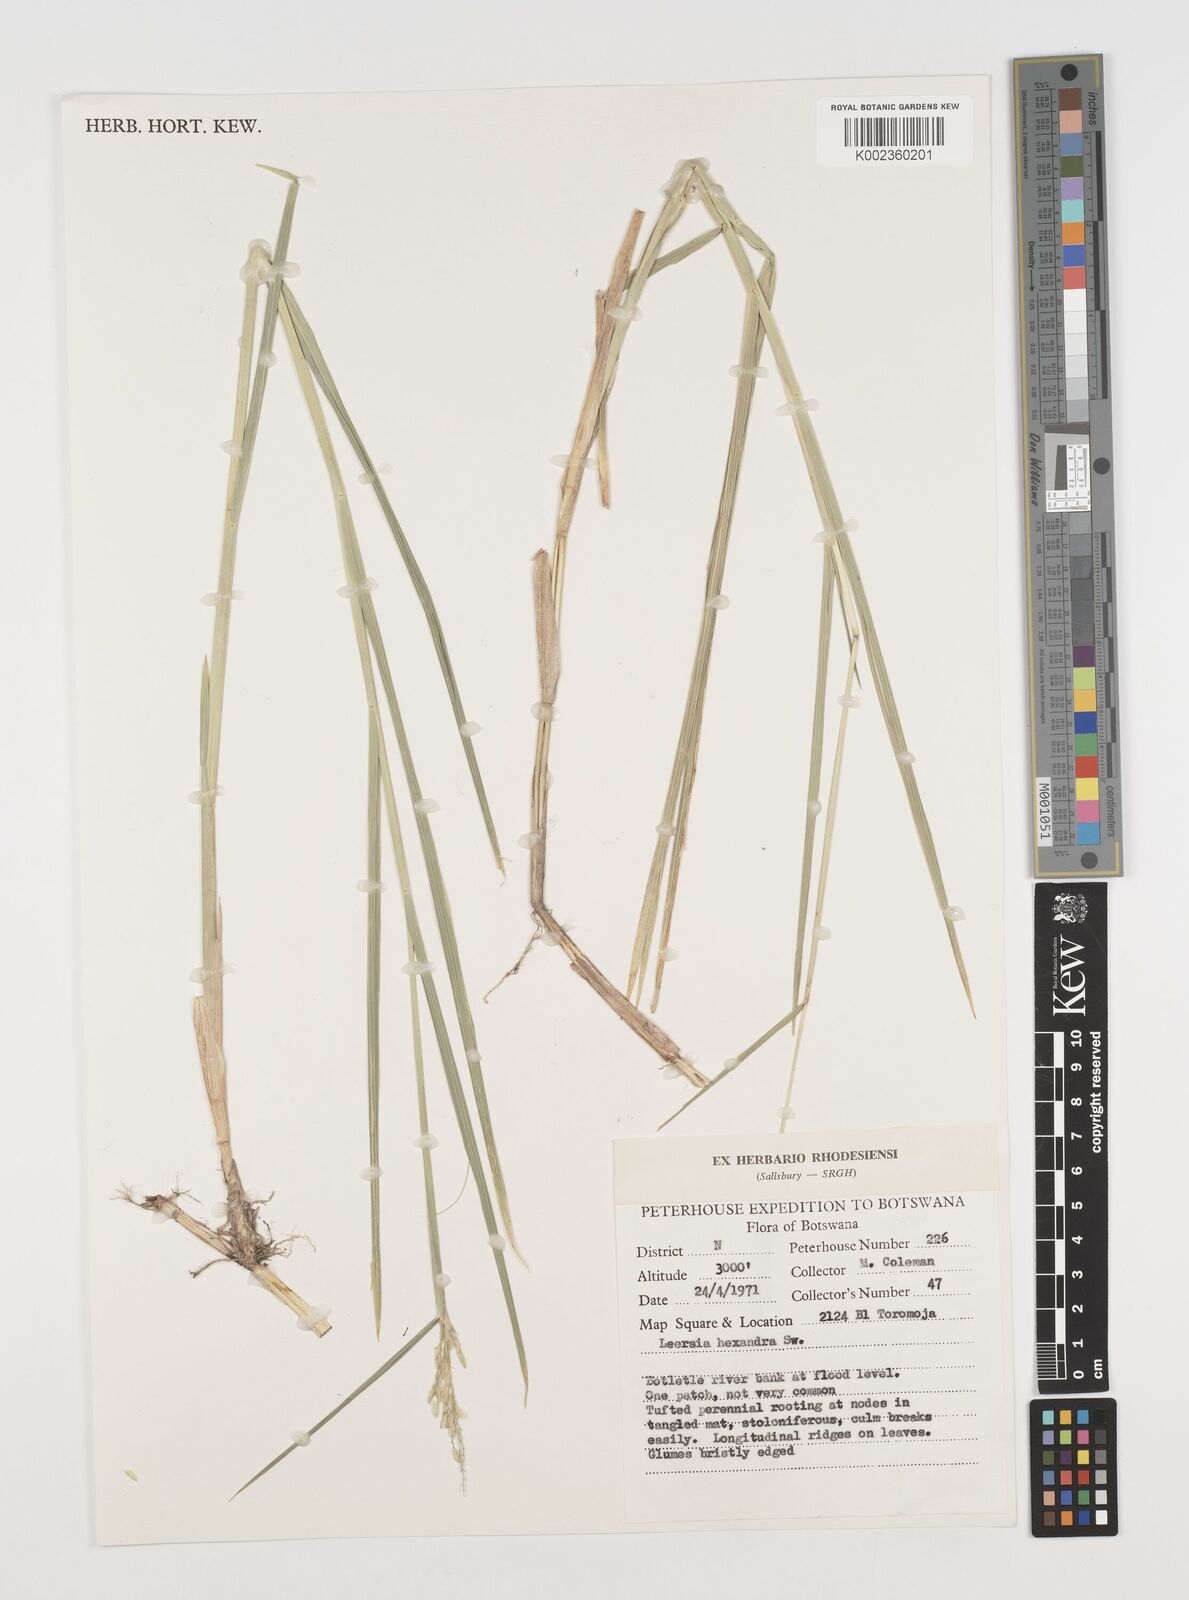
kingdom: Plantae
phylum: Tracheophyta
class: Liliopsida
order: Poales
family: Poaceae
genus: Leersia
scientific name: Leersia hexandra
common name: Southern cut grass
